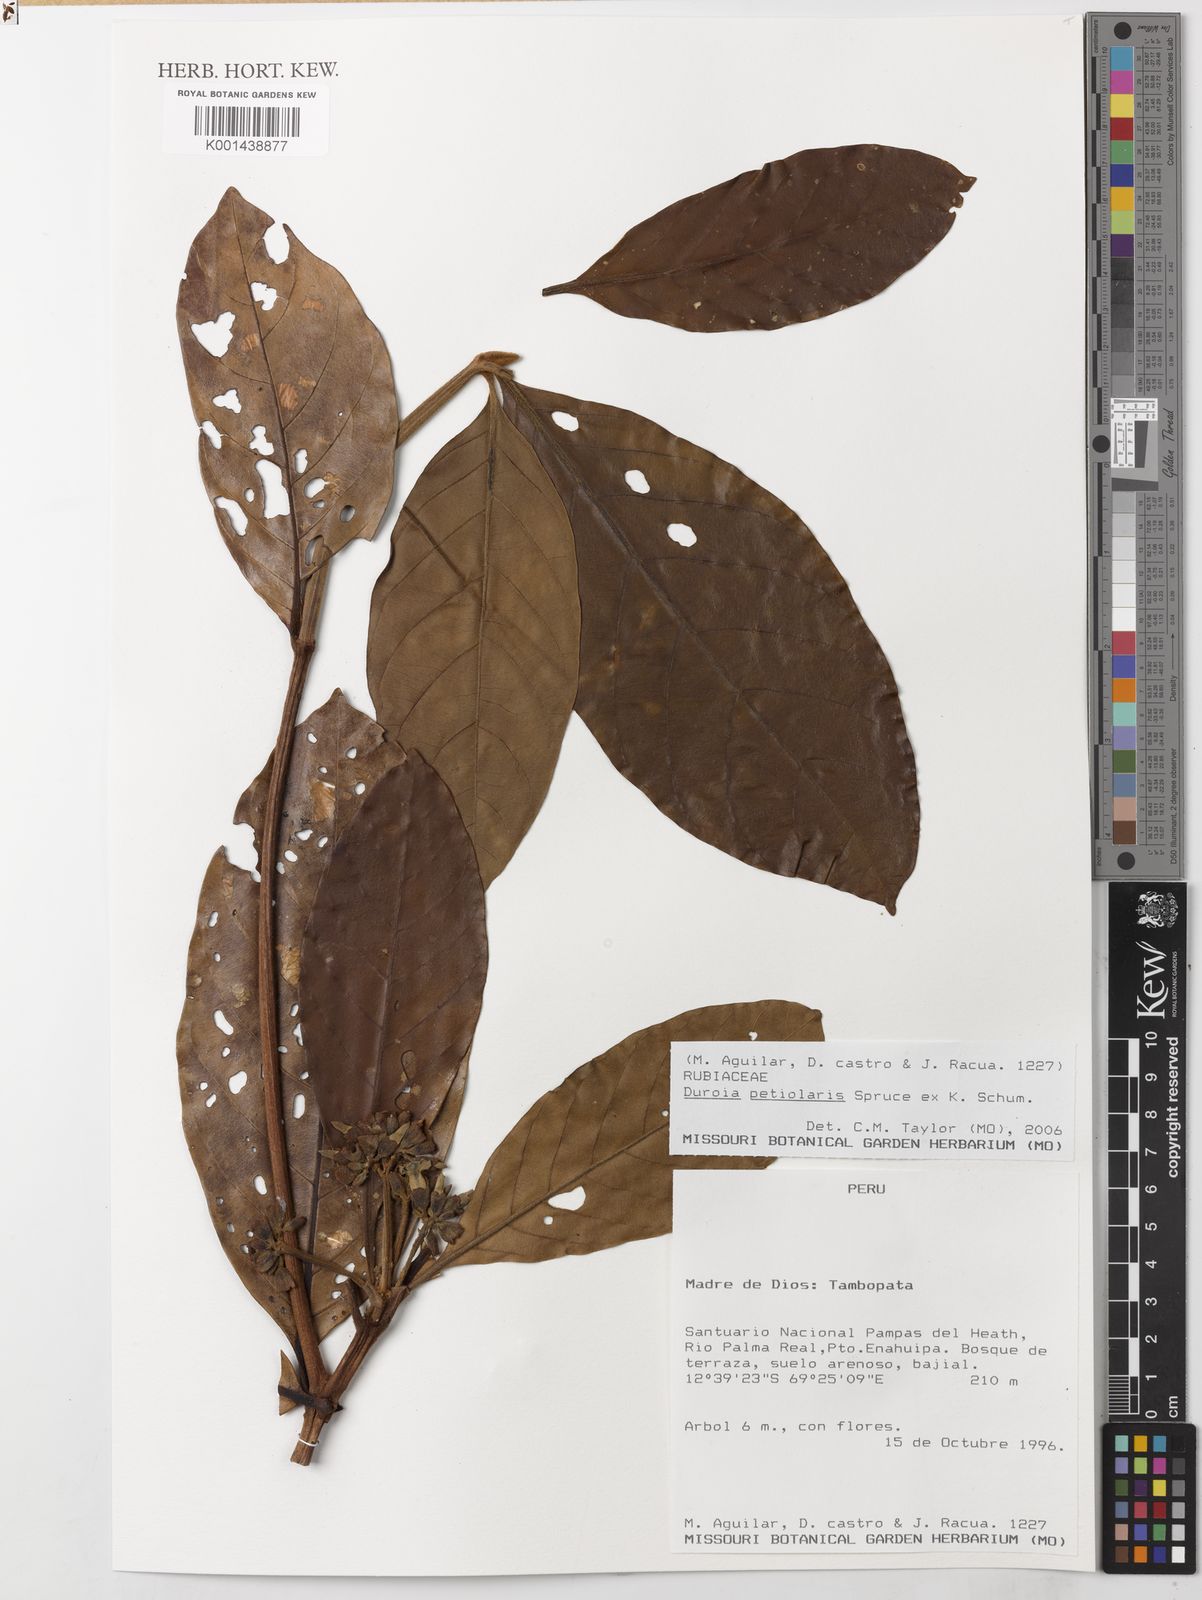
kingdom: Plantae
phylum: Tracheophyta
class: Magnoliopsida
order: Gentianales
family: Rubiaceae
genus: Duroia
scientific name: Duroia petiolaris
